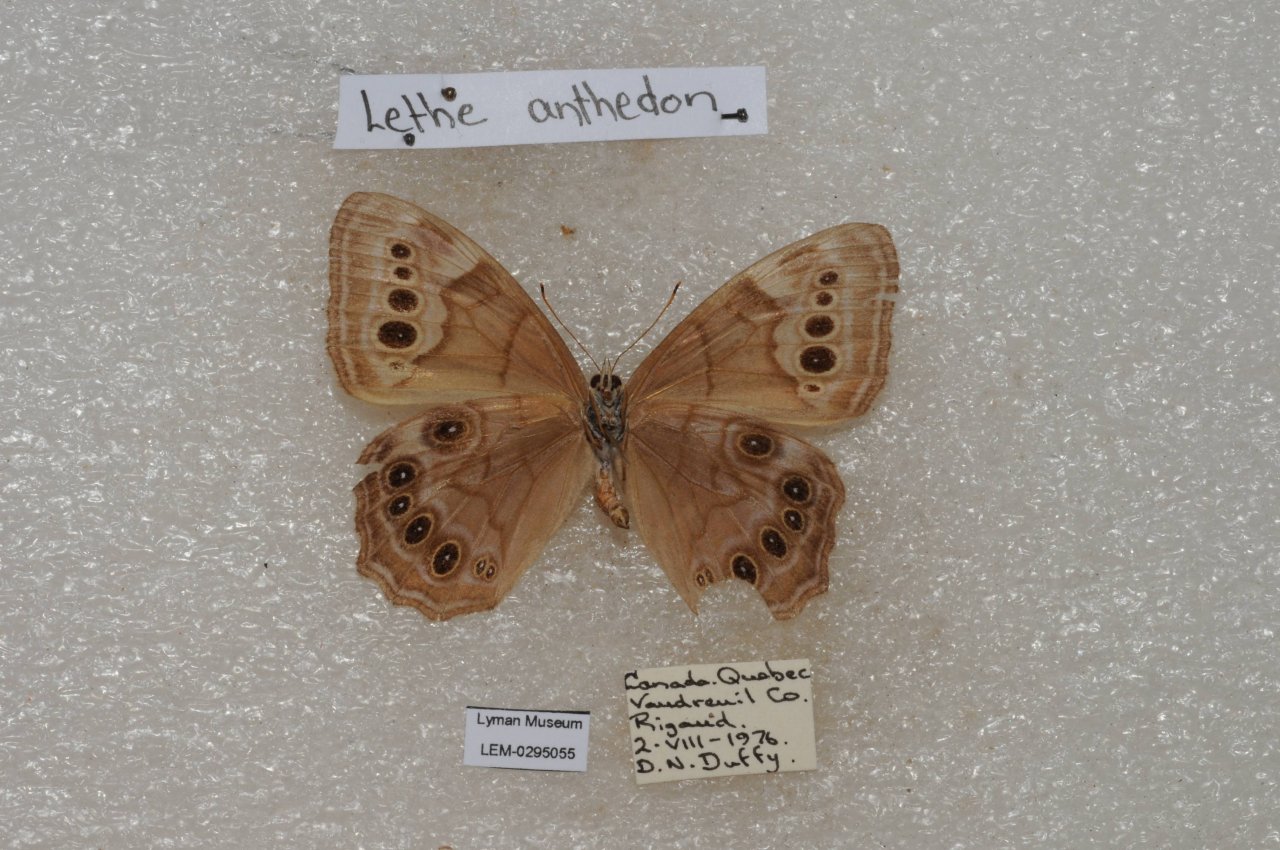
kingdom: Animalia
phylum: Arthropoda
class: Insecta
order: Lepidoptera
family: Nymphalidae
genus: Lethe
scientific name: Lethe anthedon
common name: Northern Pearly-Eye
